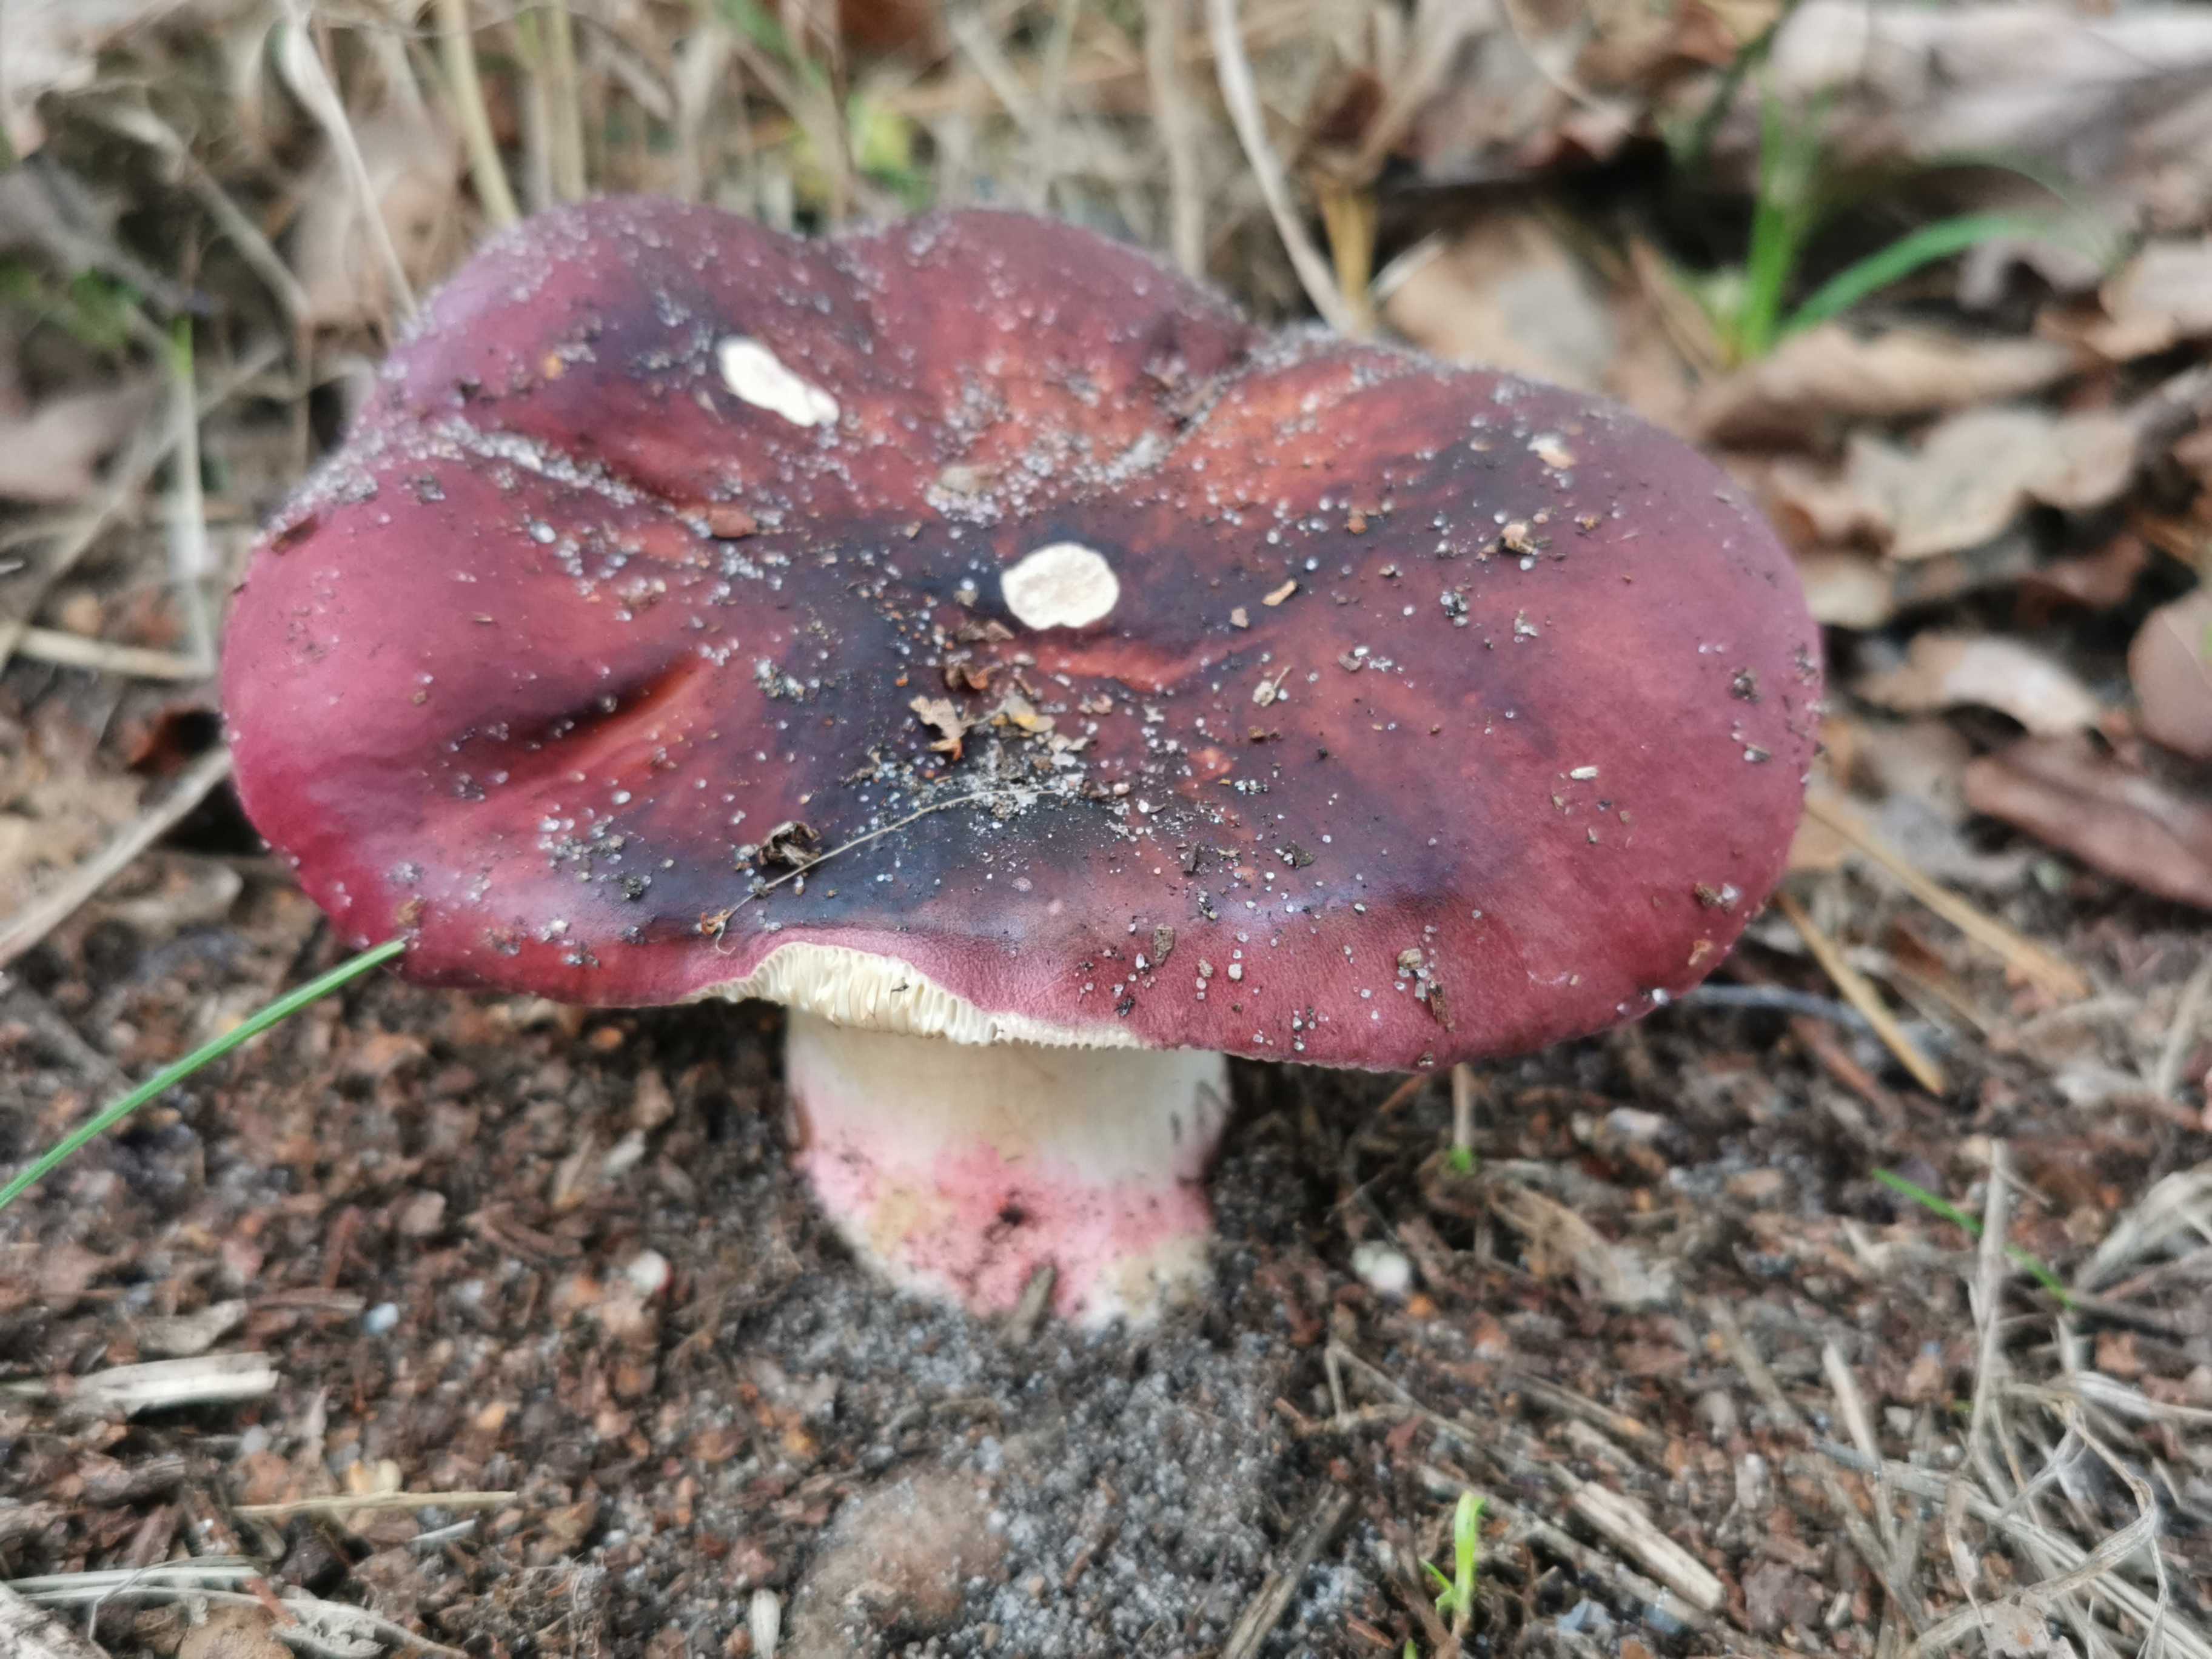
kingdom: Fungi
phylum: Basidiomycota
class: Agaricomycetes
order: Russulales
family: Russulaceae
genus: Russula
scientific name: Russula
